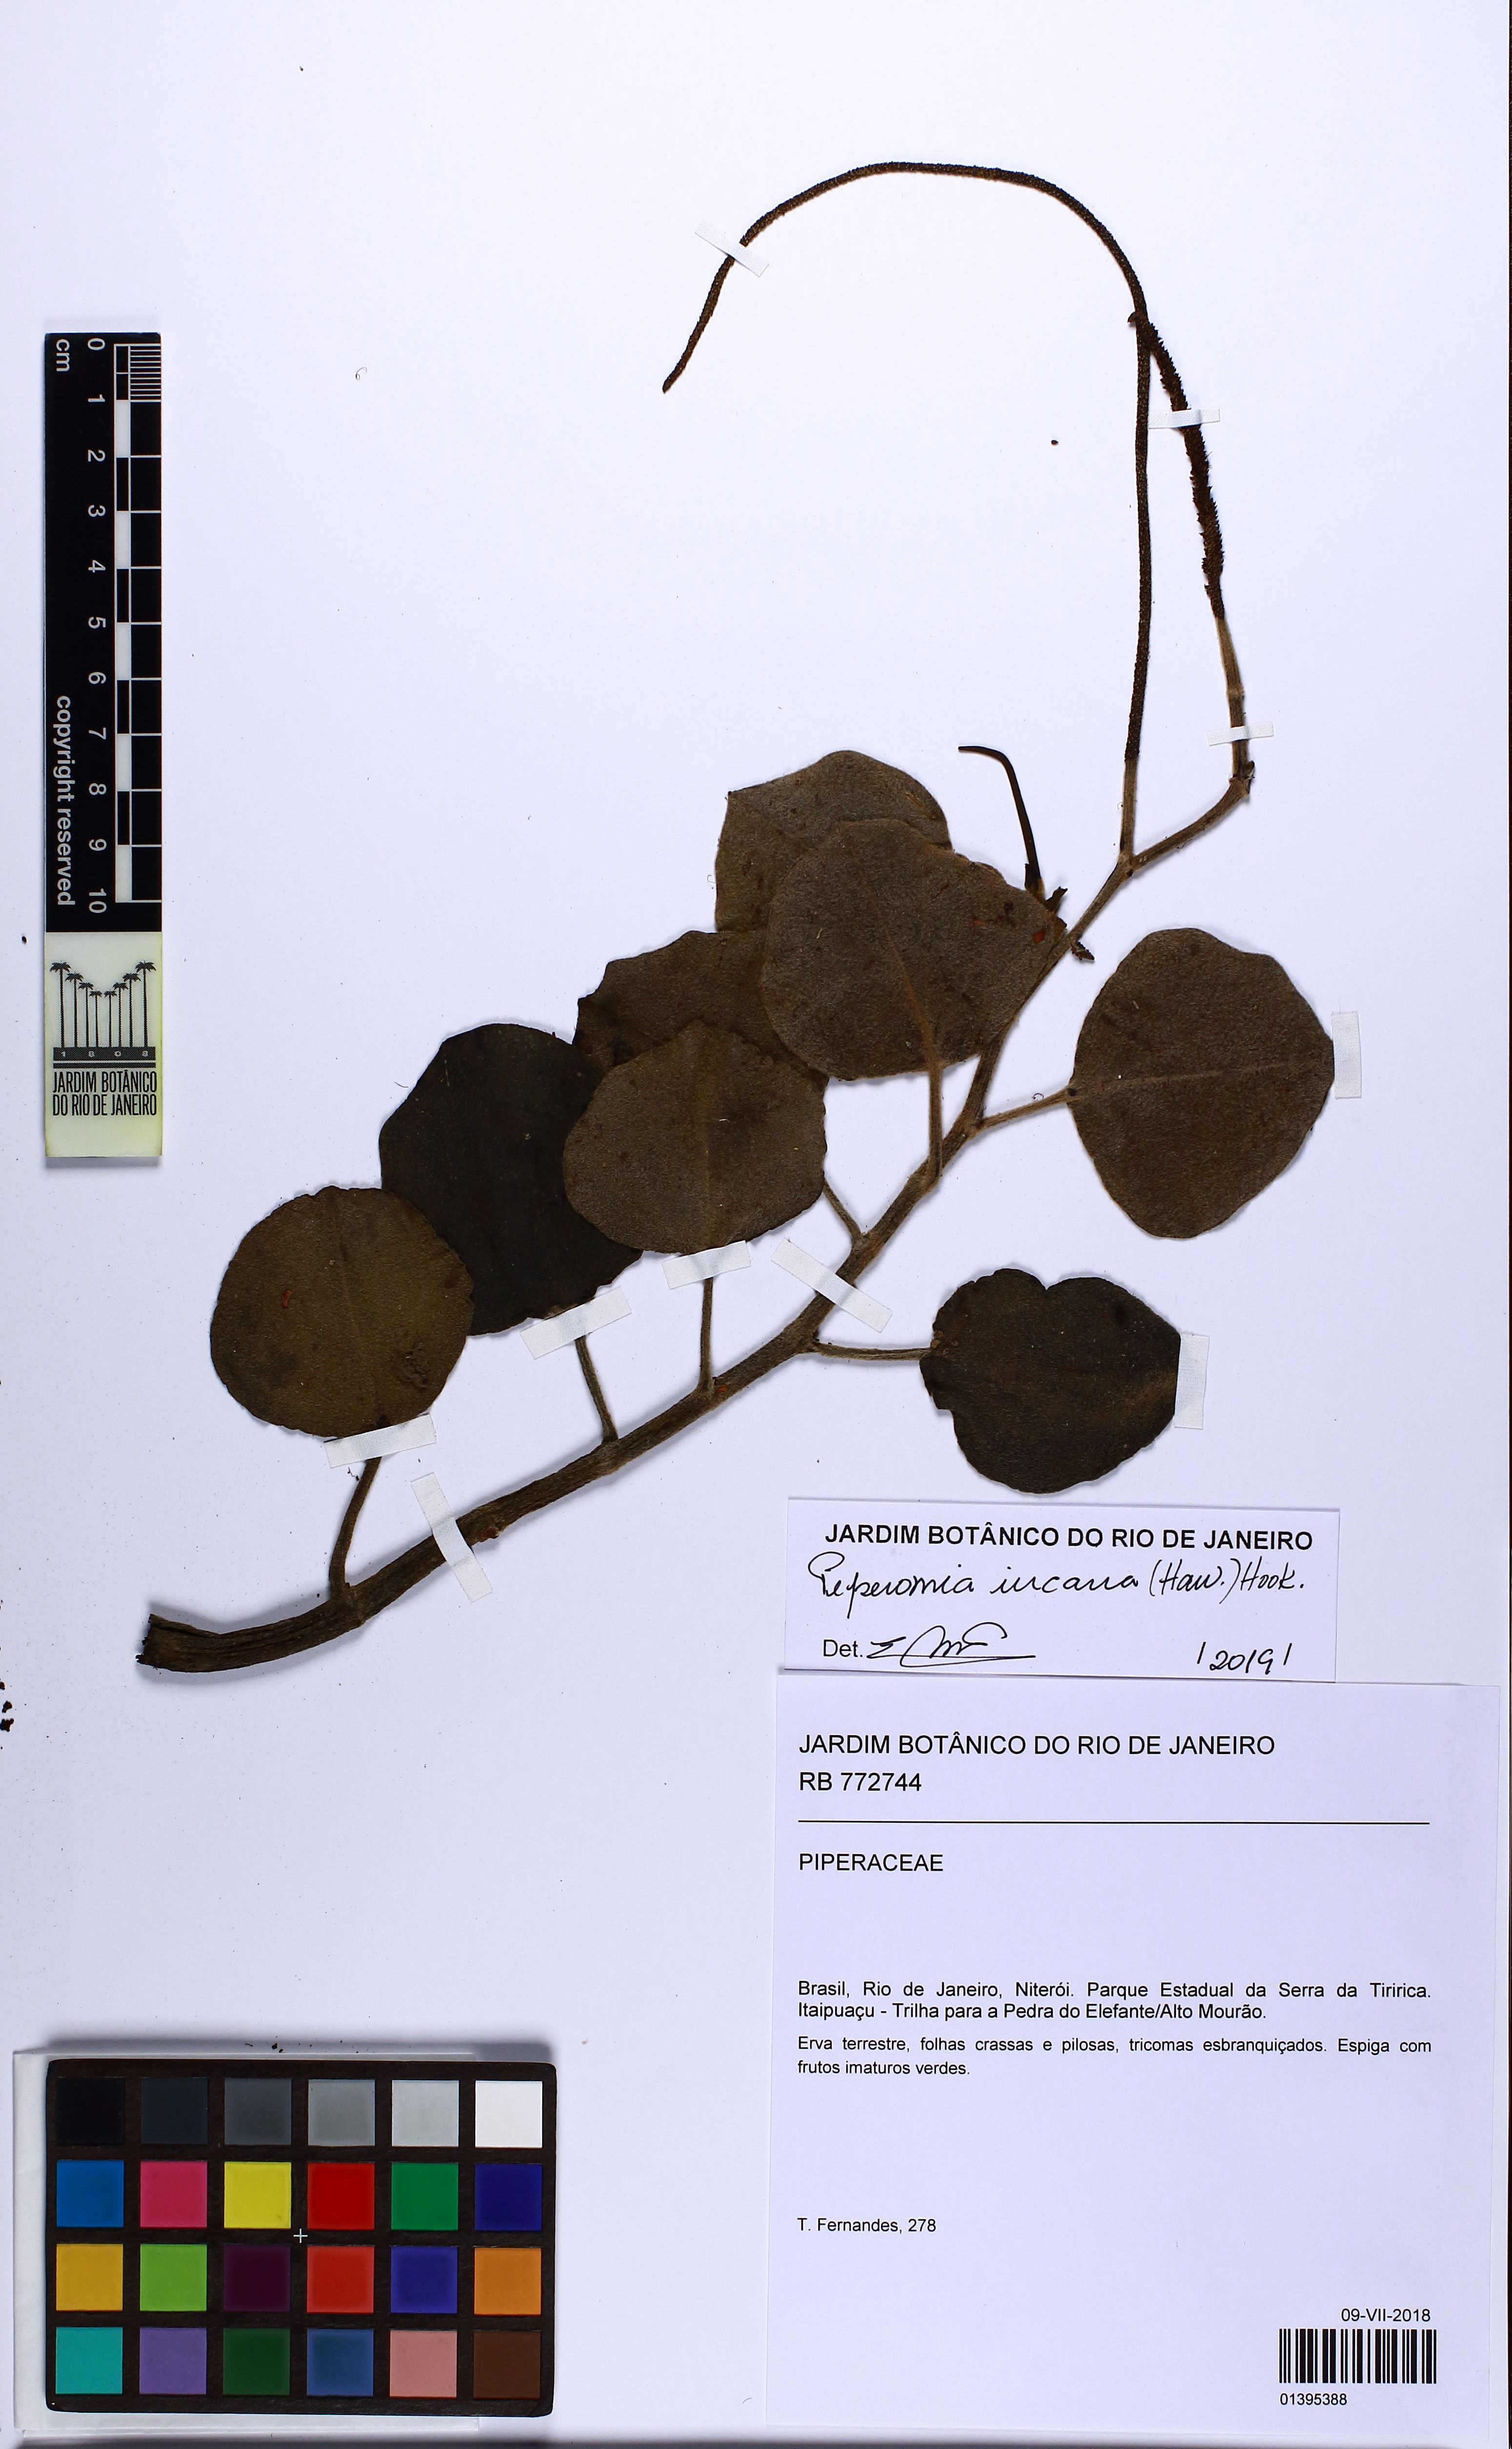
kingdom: Plantae
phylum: Tracheophyta
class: Magnoliopsida
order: Piperales
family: Piperaceae
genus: Peperomia
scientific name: Peperomia incana
